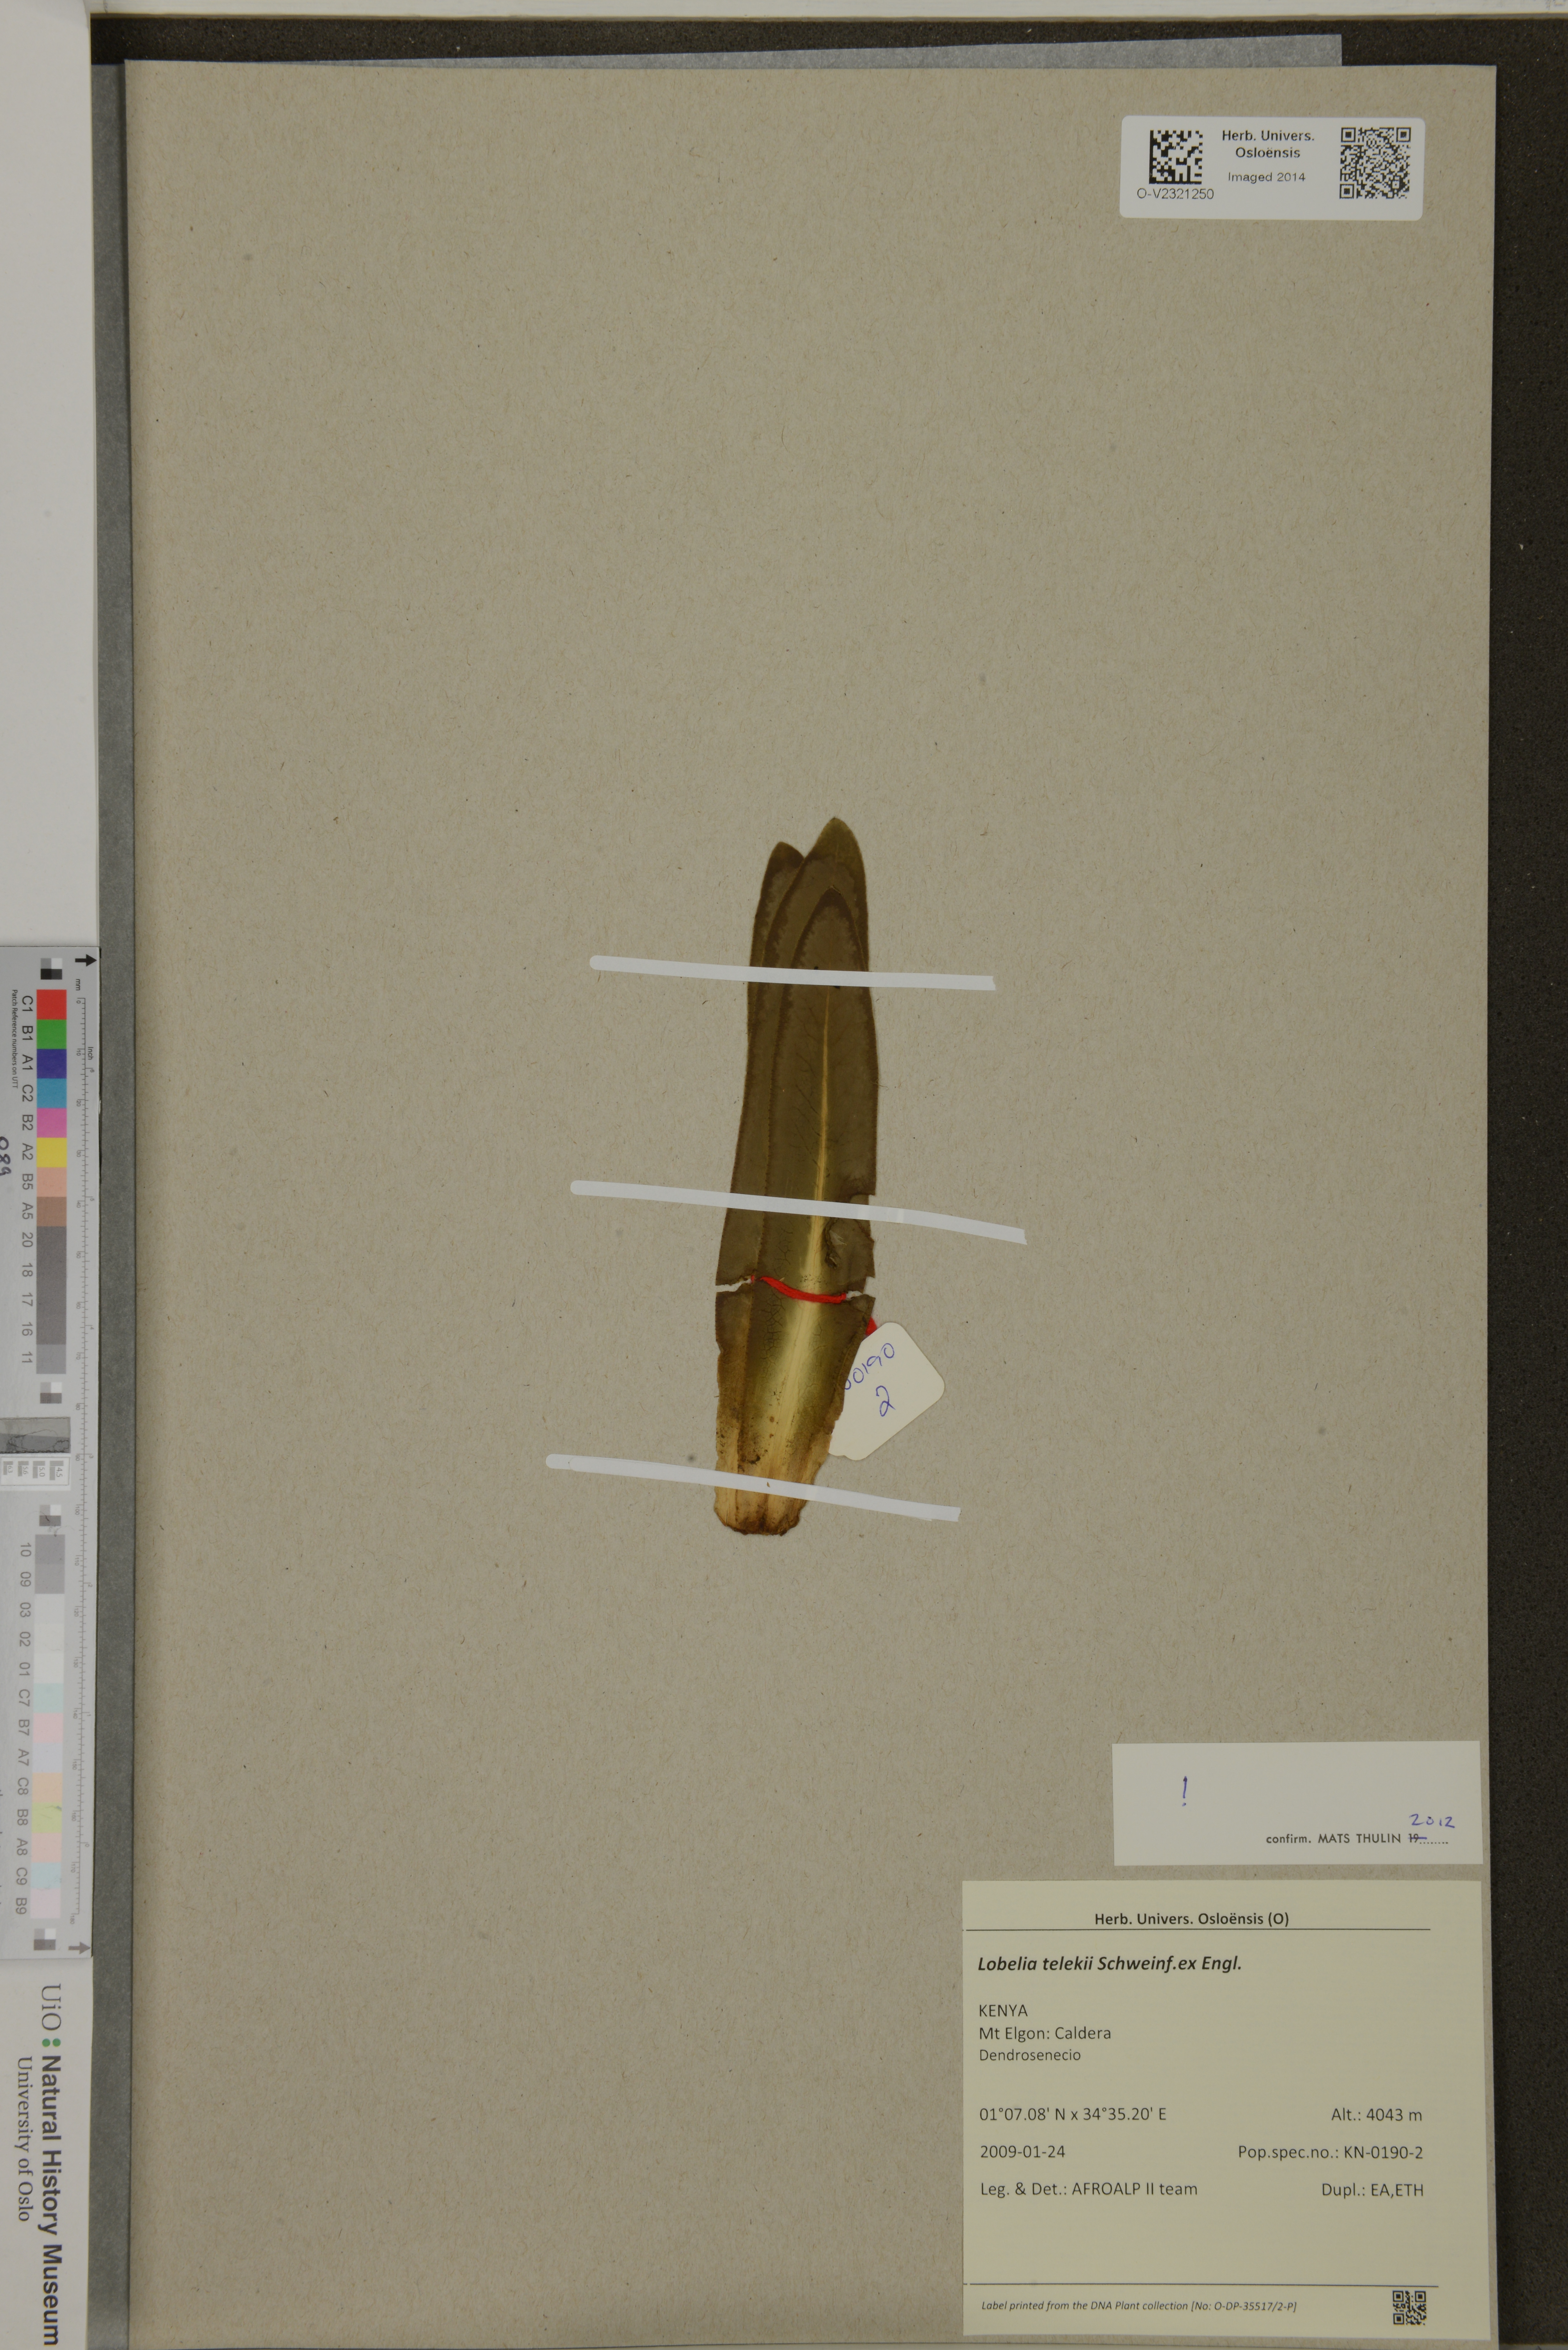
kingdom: Plantae
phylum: Tracheophyta
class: Magnoliopsida
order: Asterales
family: Campanulaceae
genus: Lobelia
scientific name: Lobelia telekii
